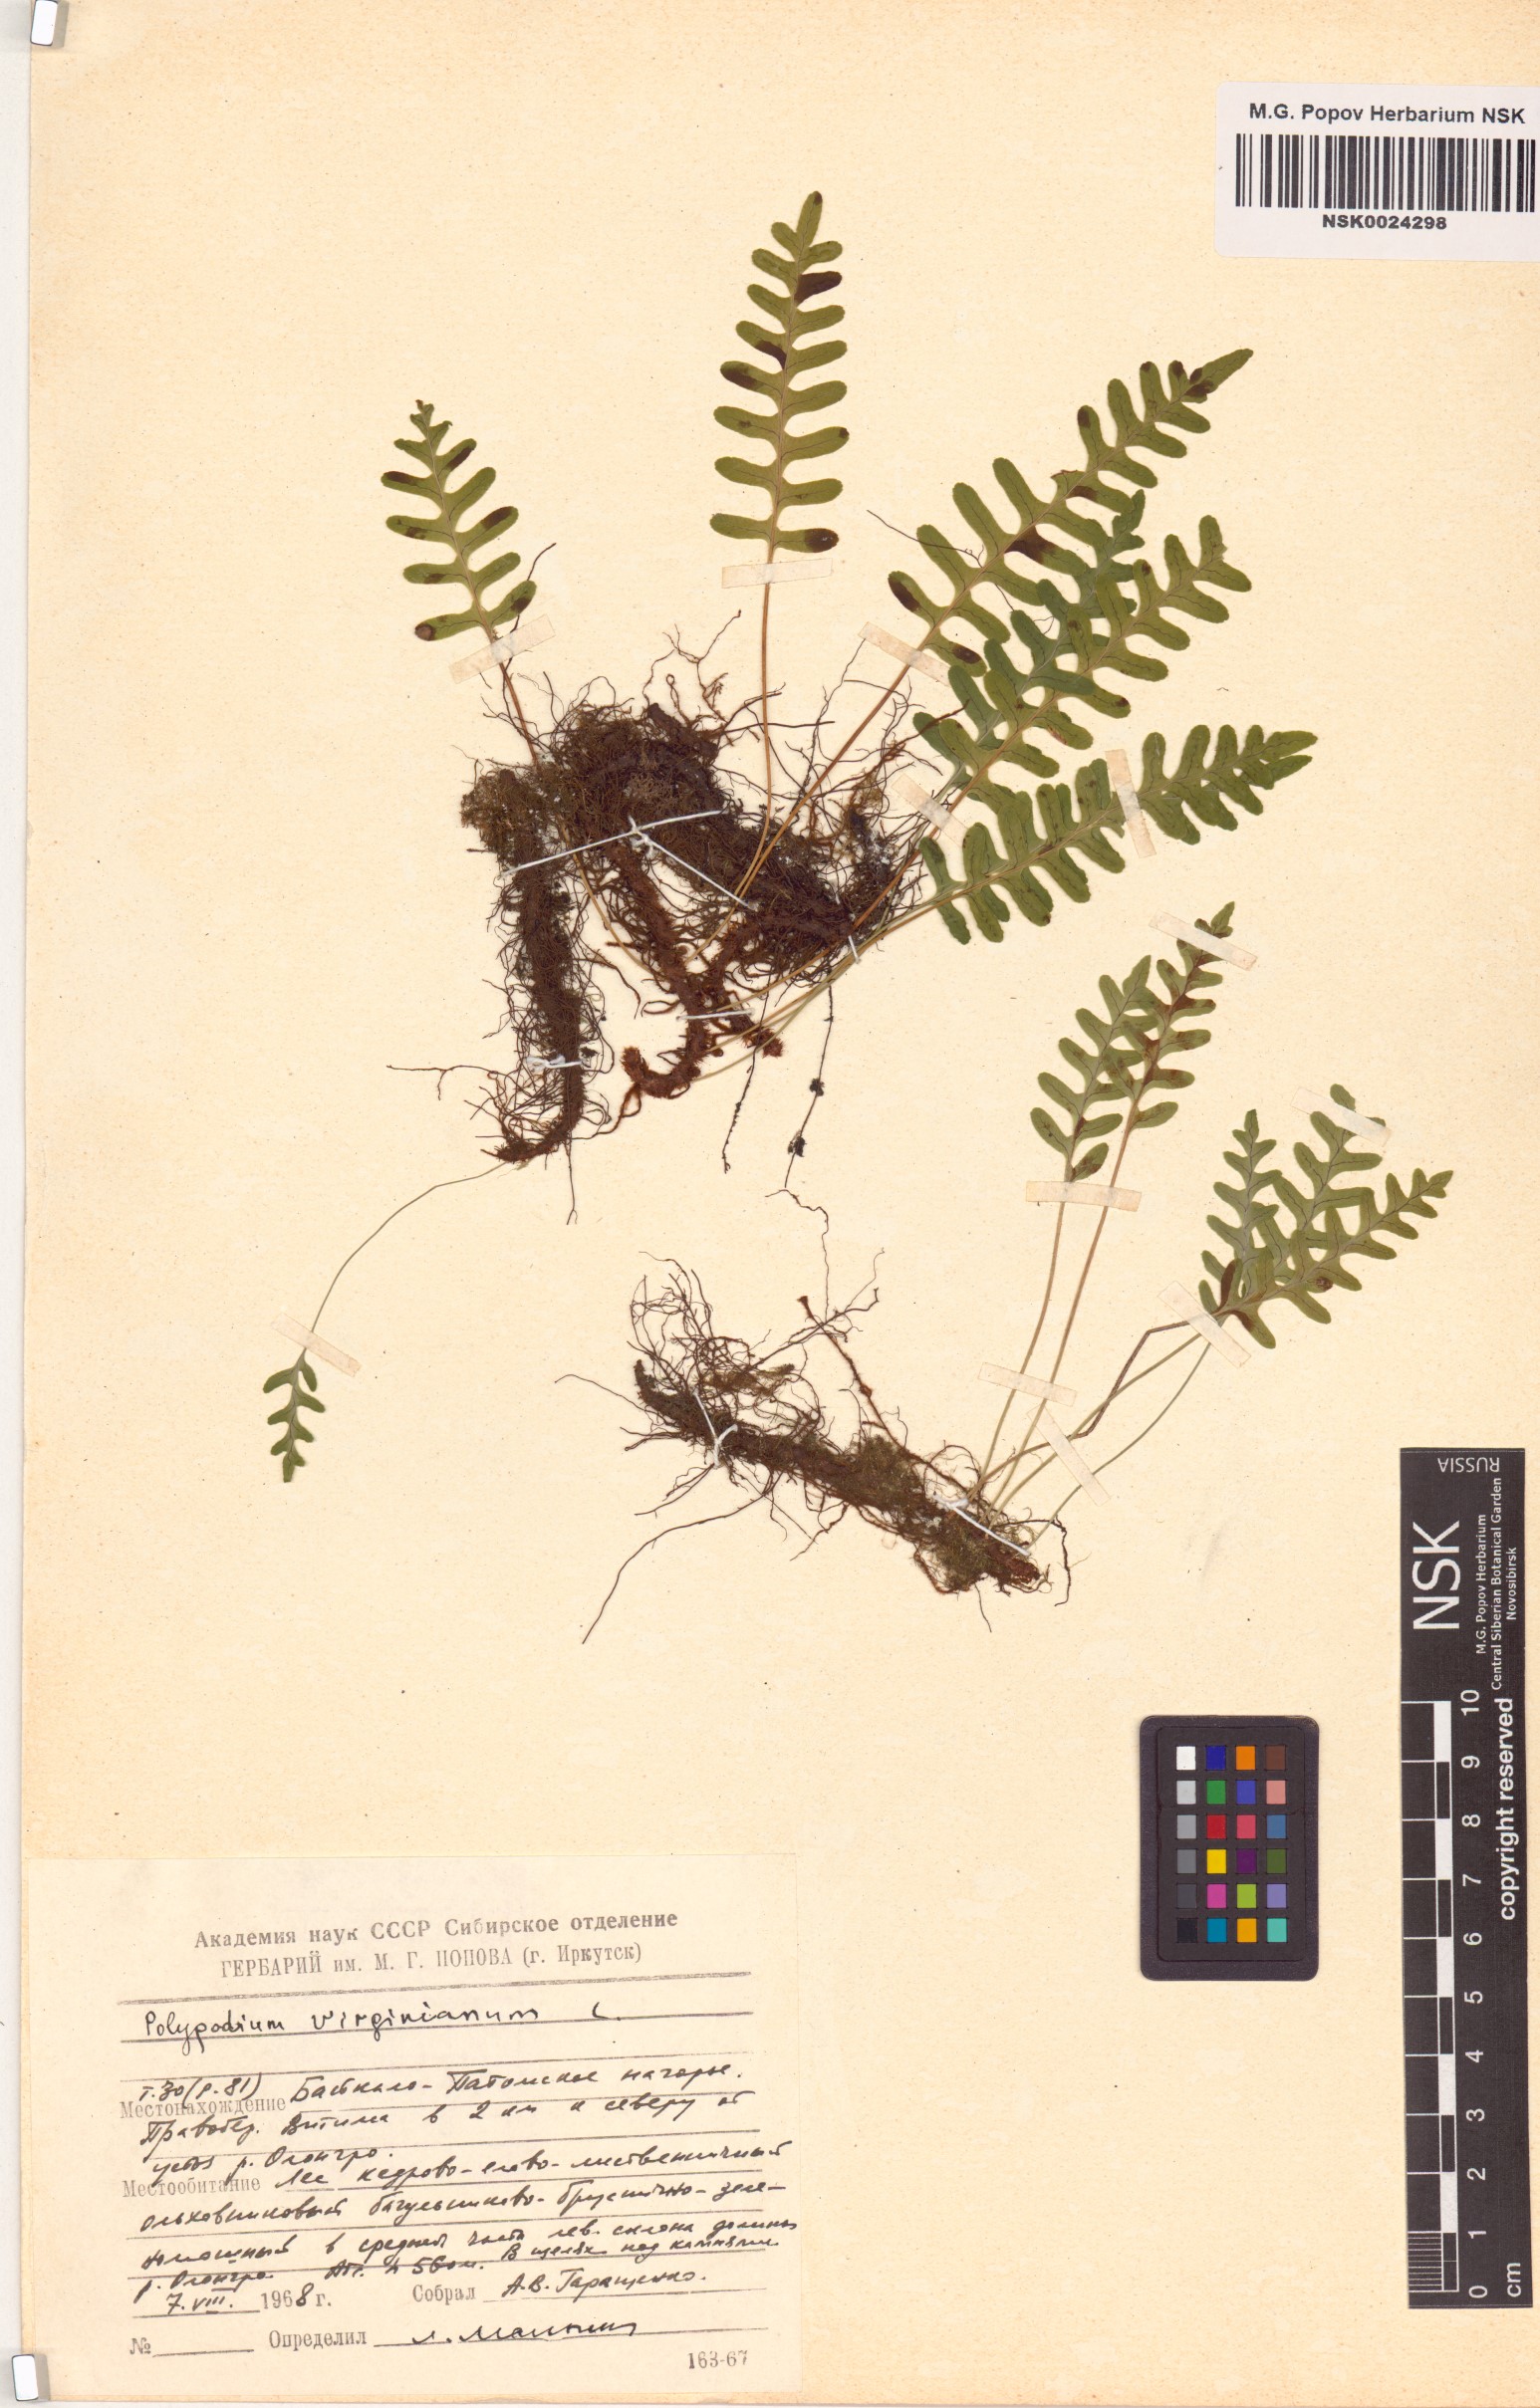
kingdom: Plantae
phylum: Tracheophyta
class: Polypodiopsida
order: Polypodiales
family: Polypodiaceae
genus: Polypodium
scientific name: Polypodium virginianum
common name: American wall fern
